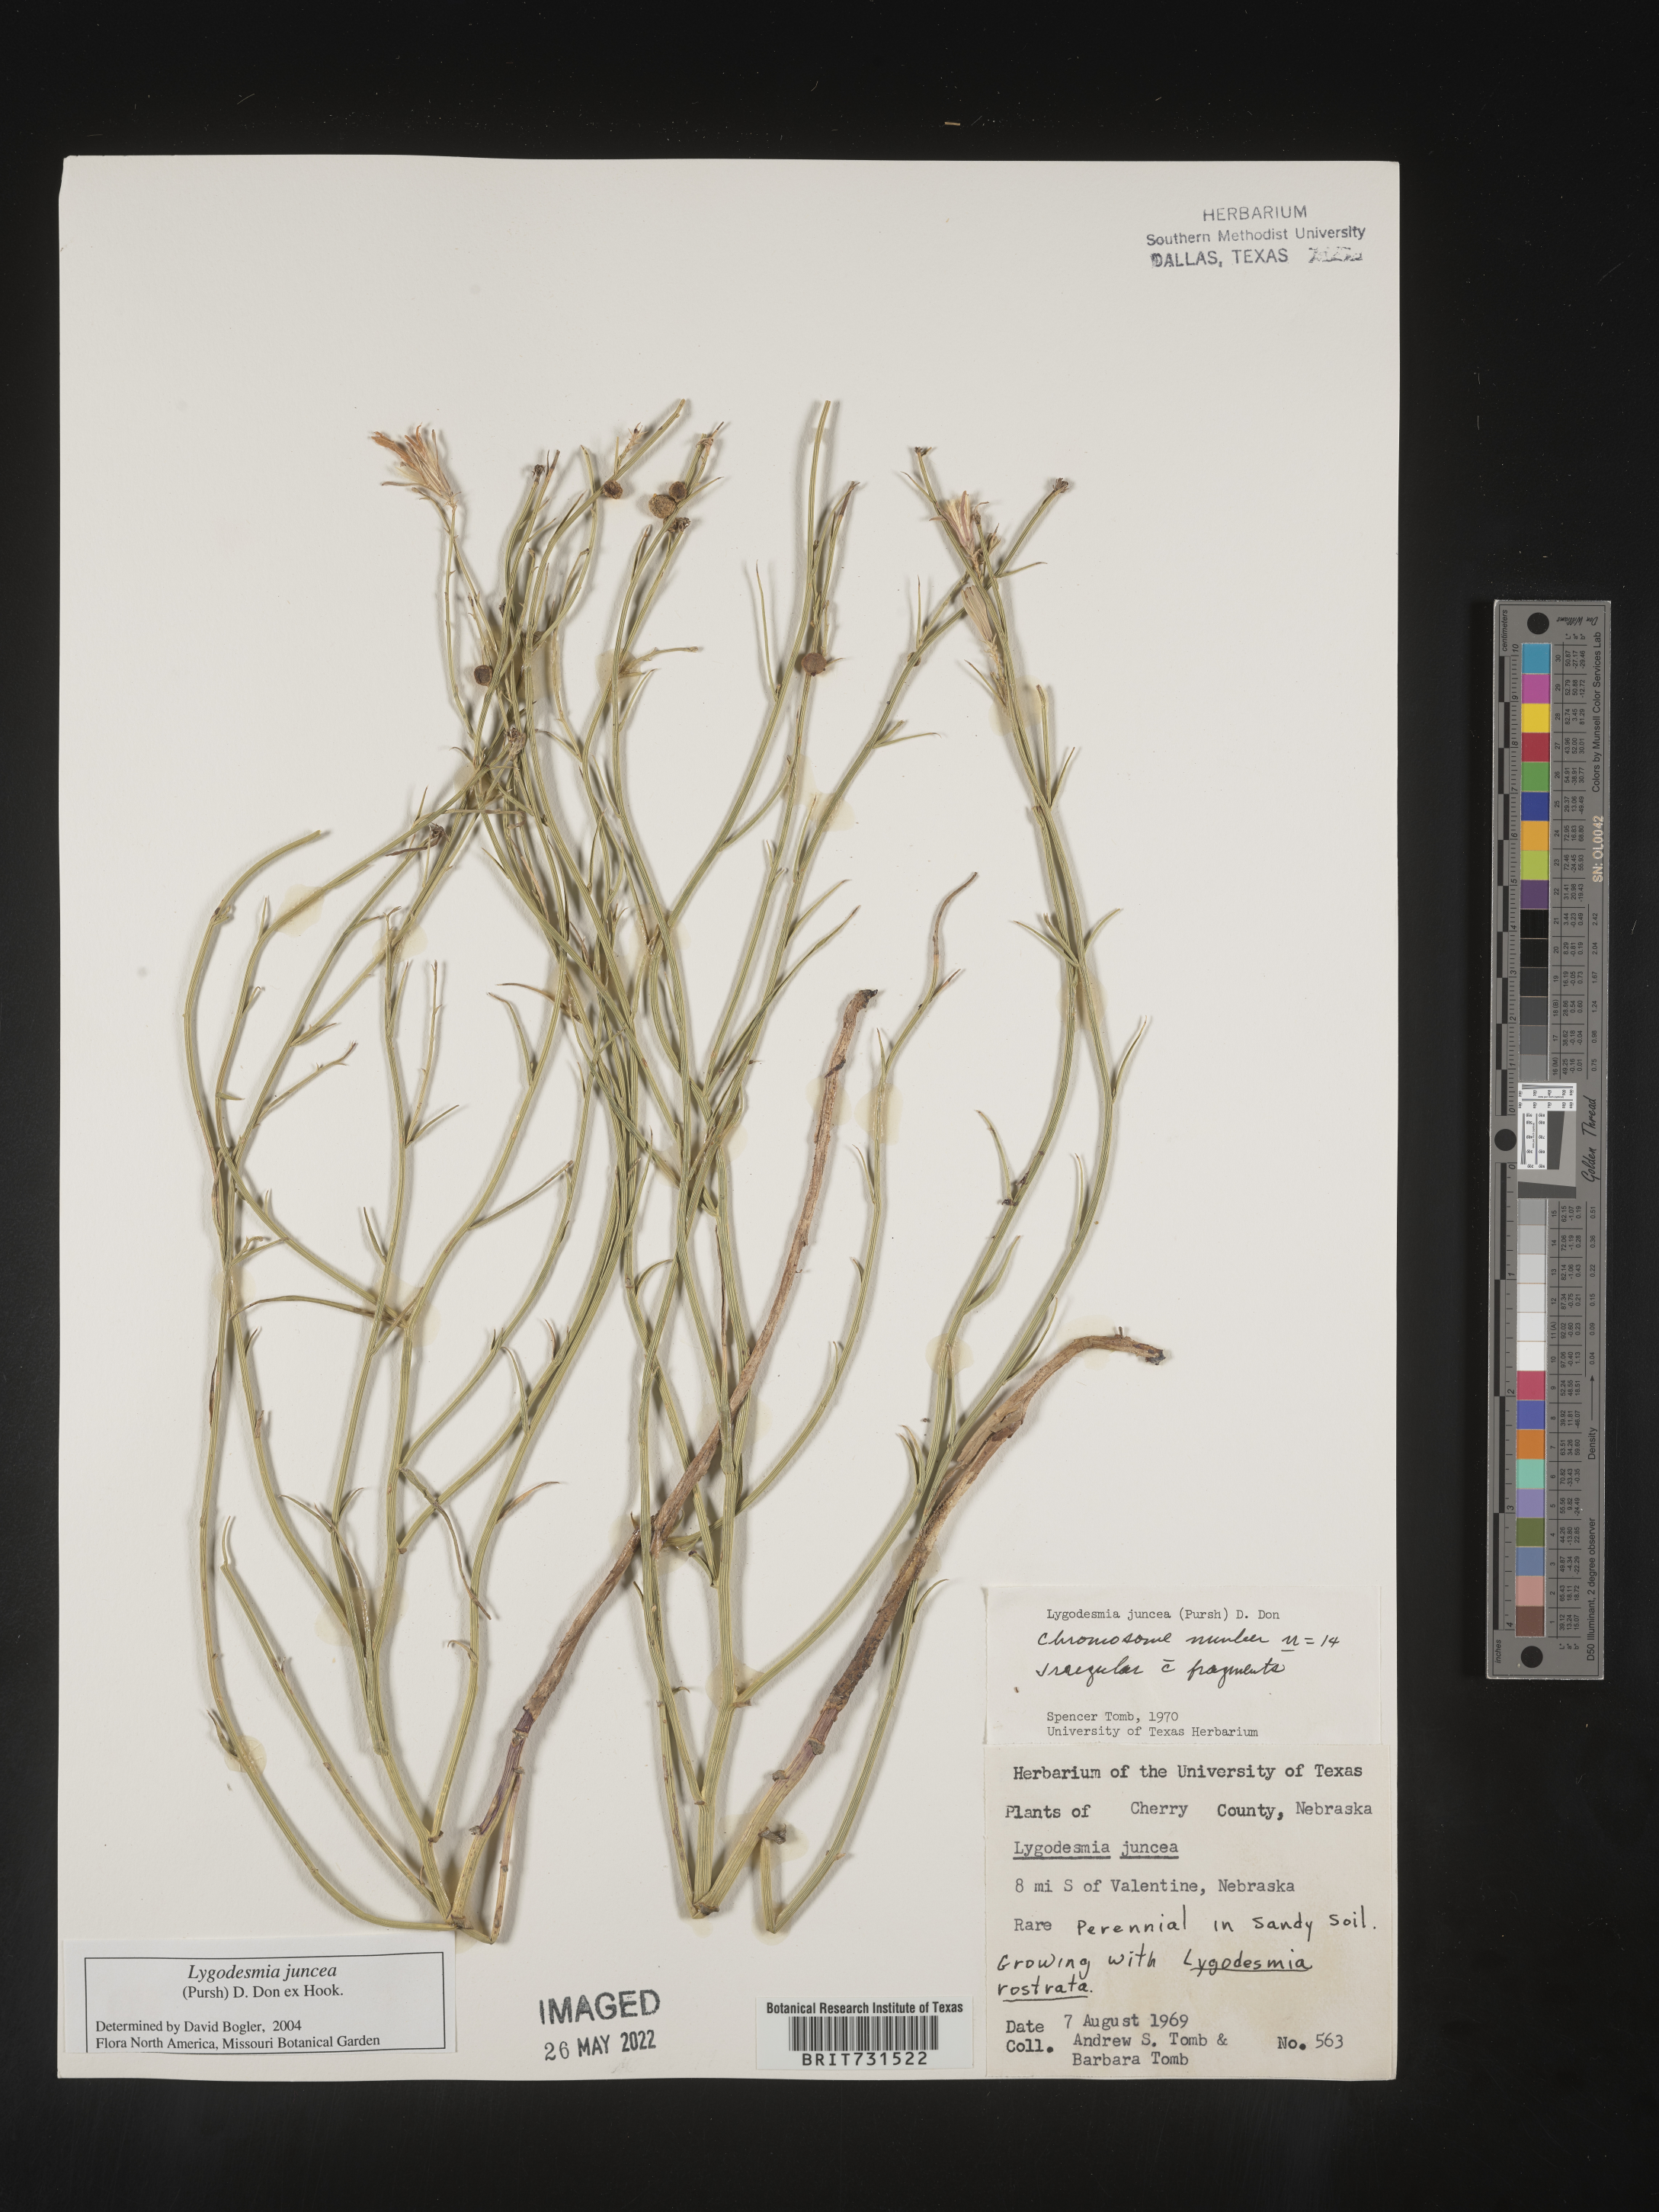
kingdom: Plantae
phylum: Tracheophyta
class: Magnoliopsida
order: Asterales
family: Asteraceae
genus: Lygodesmia
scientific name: Lygodesmia juncea
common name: Common skeletonweed
